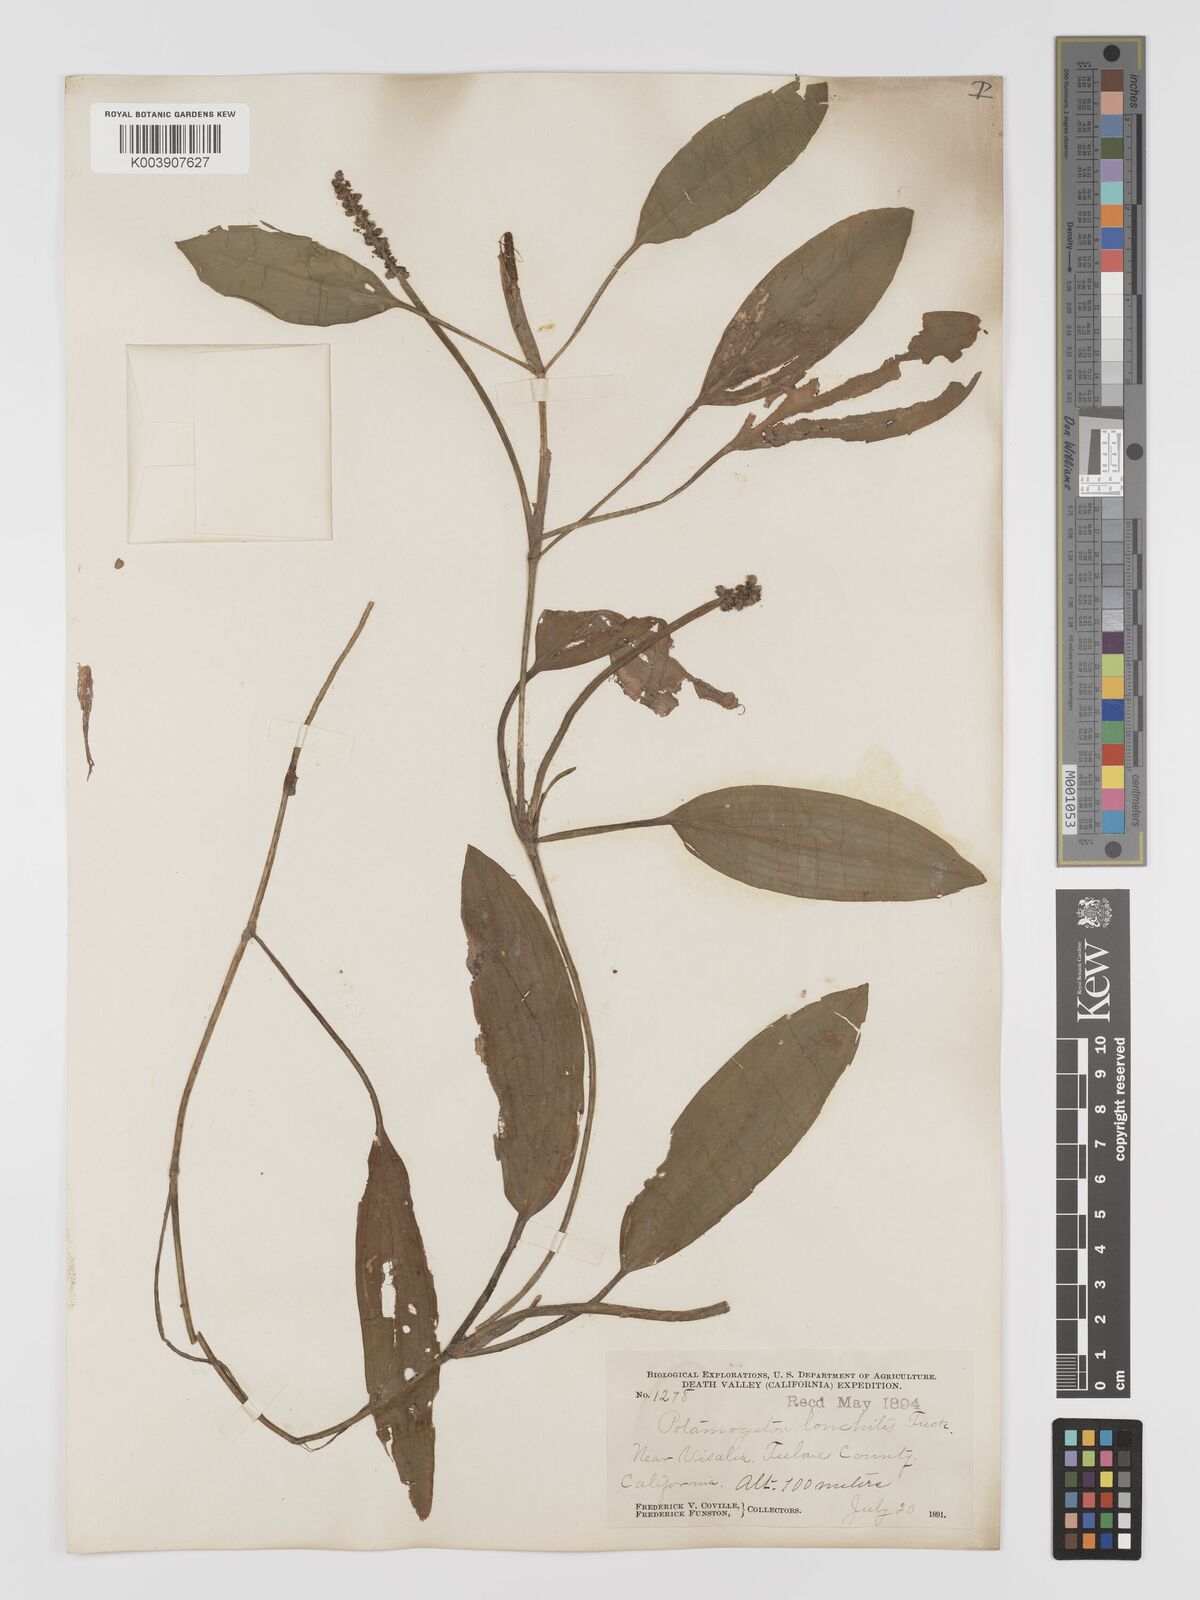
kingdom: Plantae
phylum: Tracheophyta
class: Liliopsida
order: Alismatales
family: Potamogetonaceae
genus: Potamogeton
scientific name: Potamogeton nodosus
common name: Loddon pondweed
